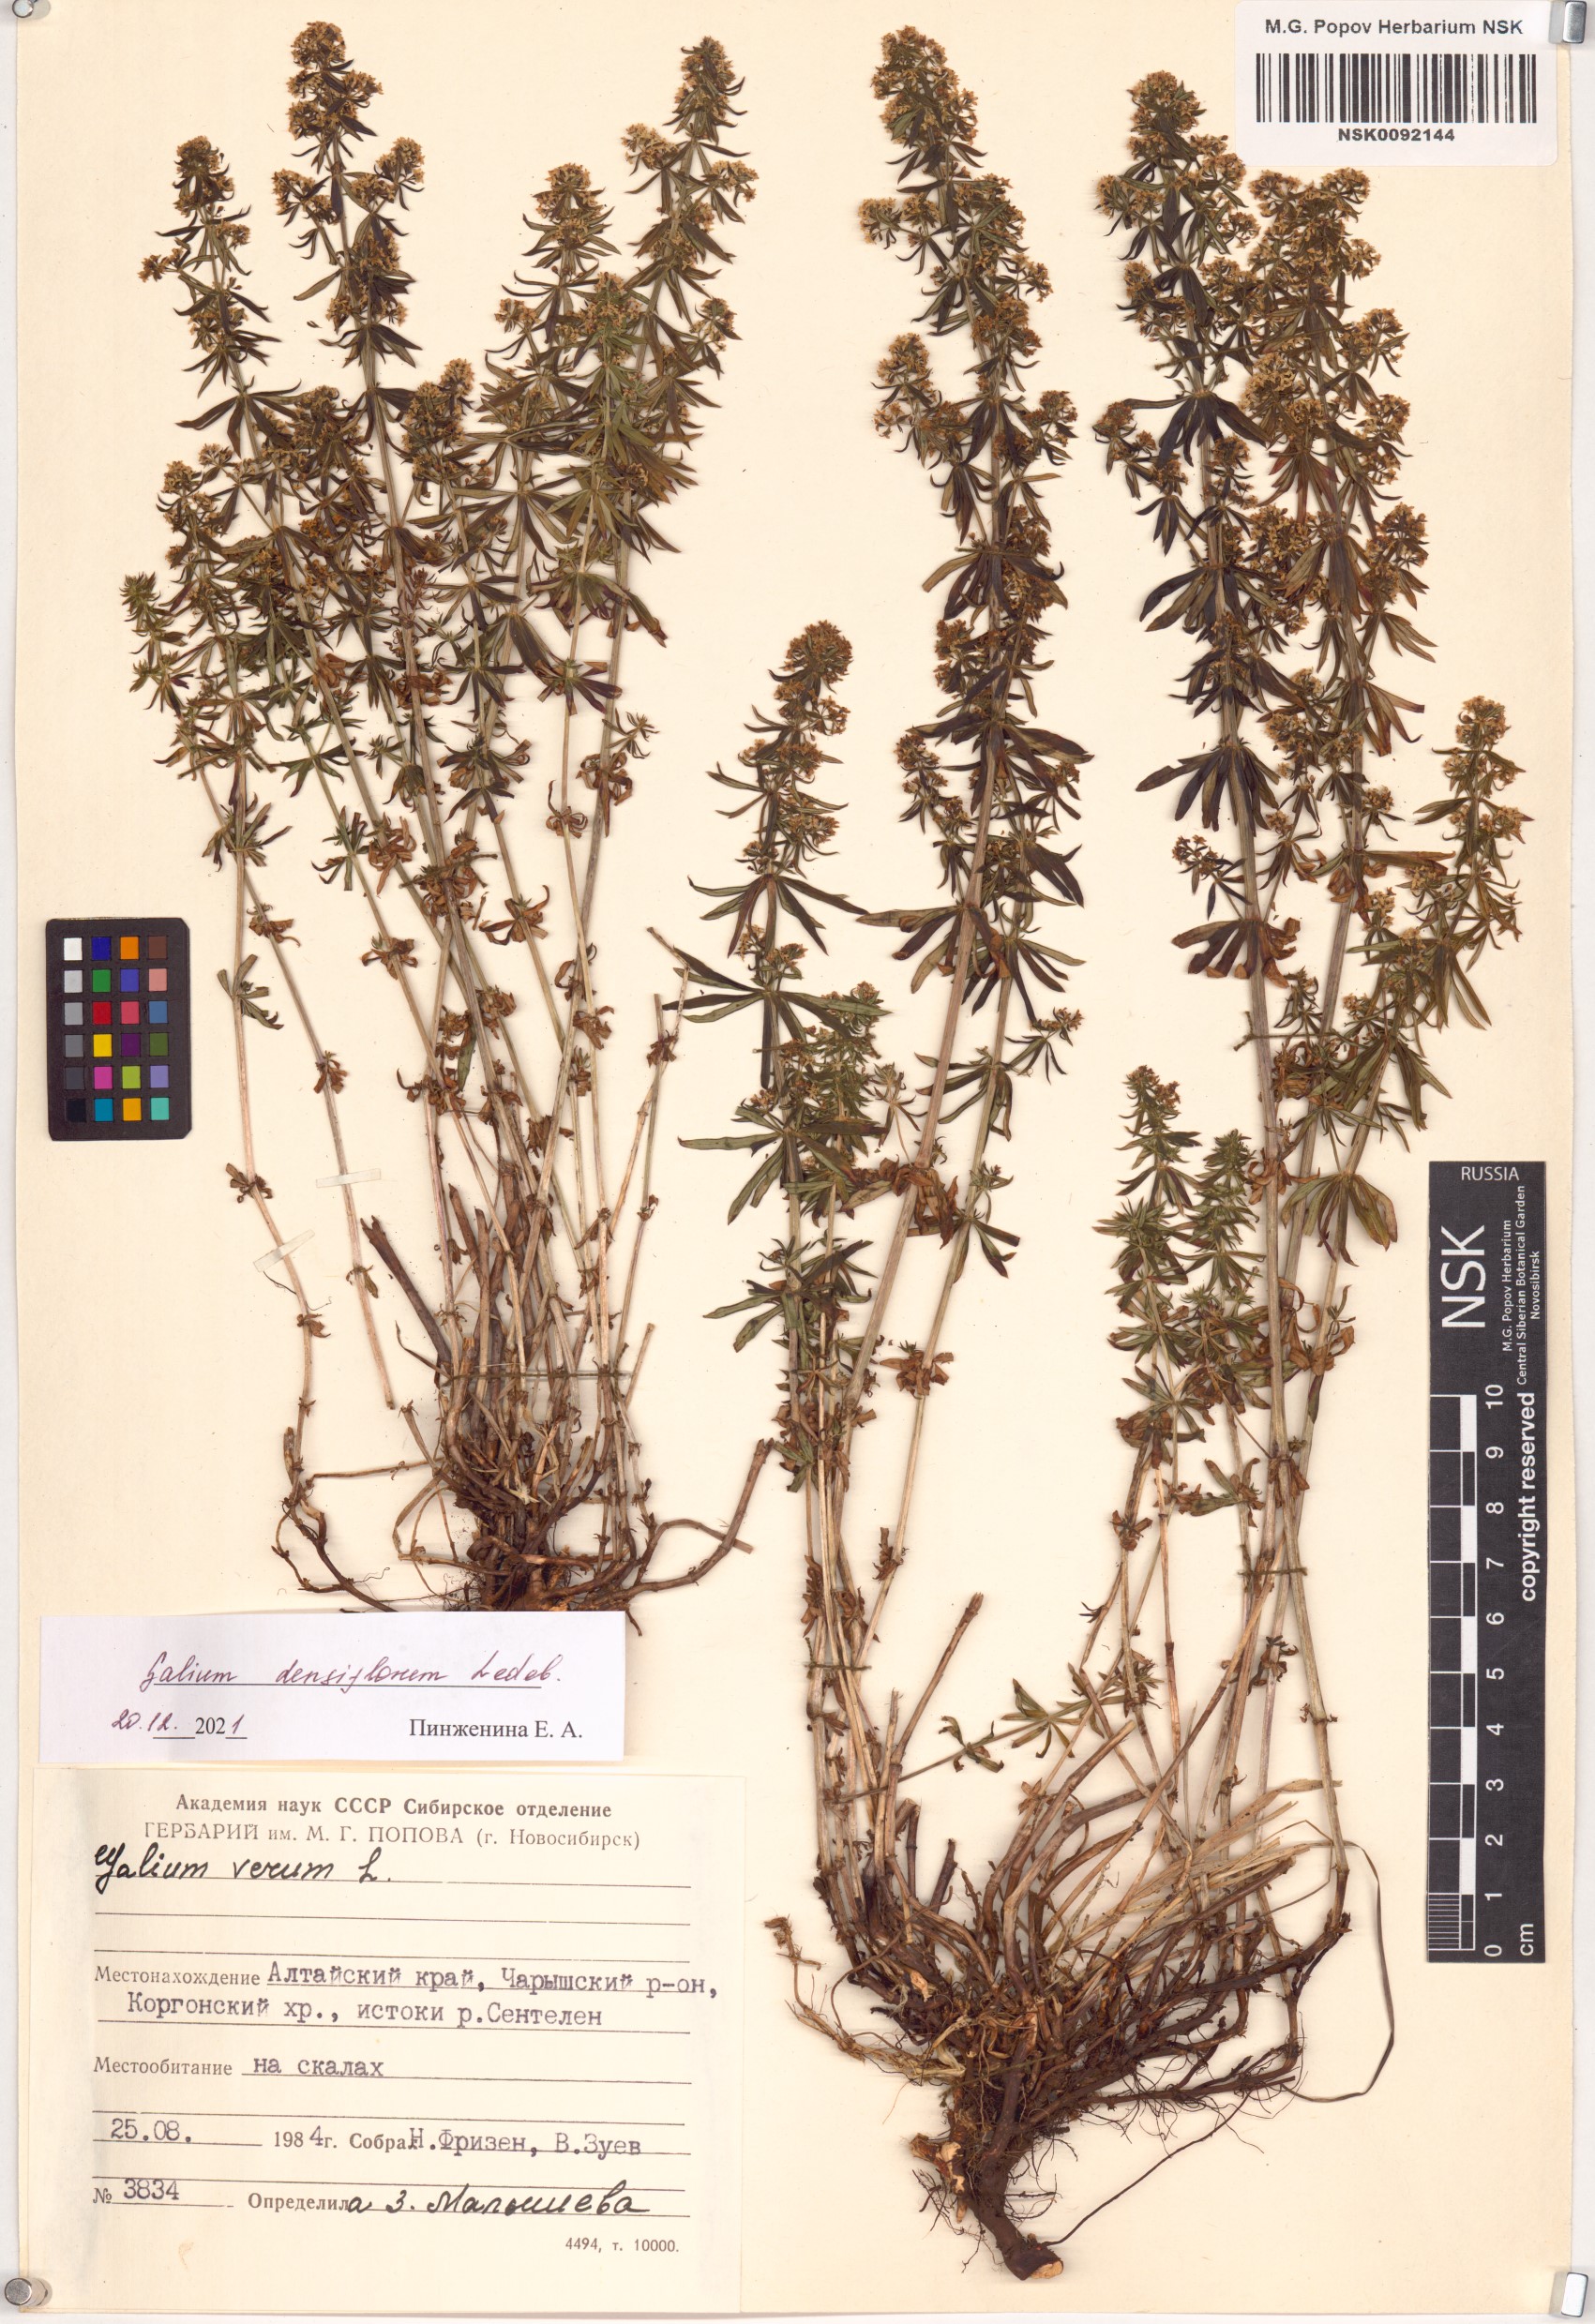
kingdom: Plantae
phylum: Tracheophyta
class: Magnoliopsida
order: Gentianales
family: Rubiaceae
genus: Galium
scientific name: Galium densiflorum
